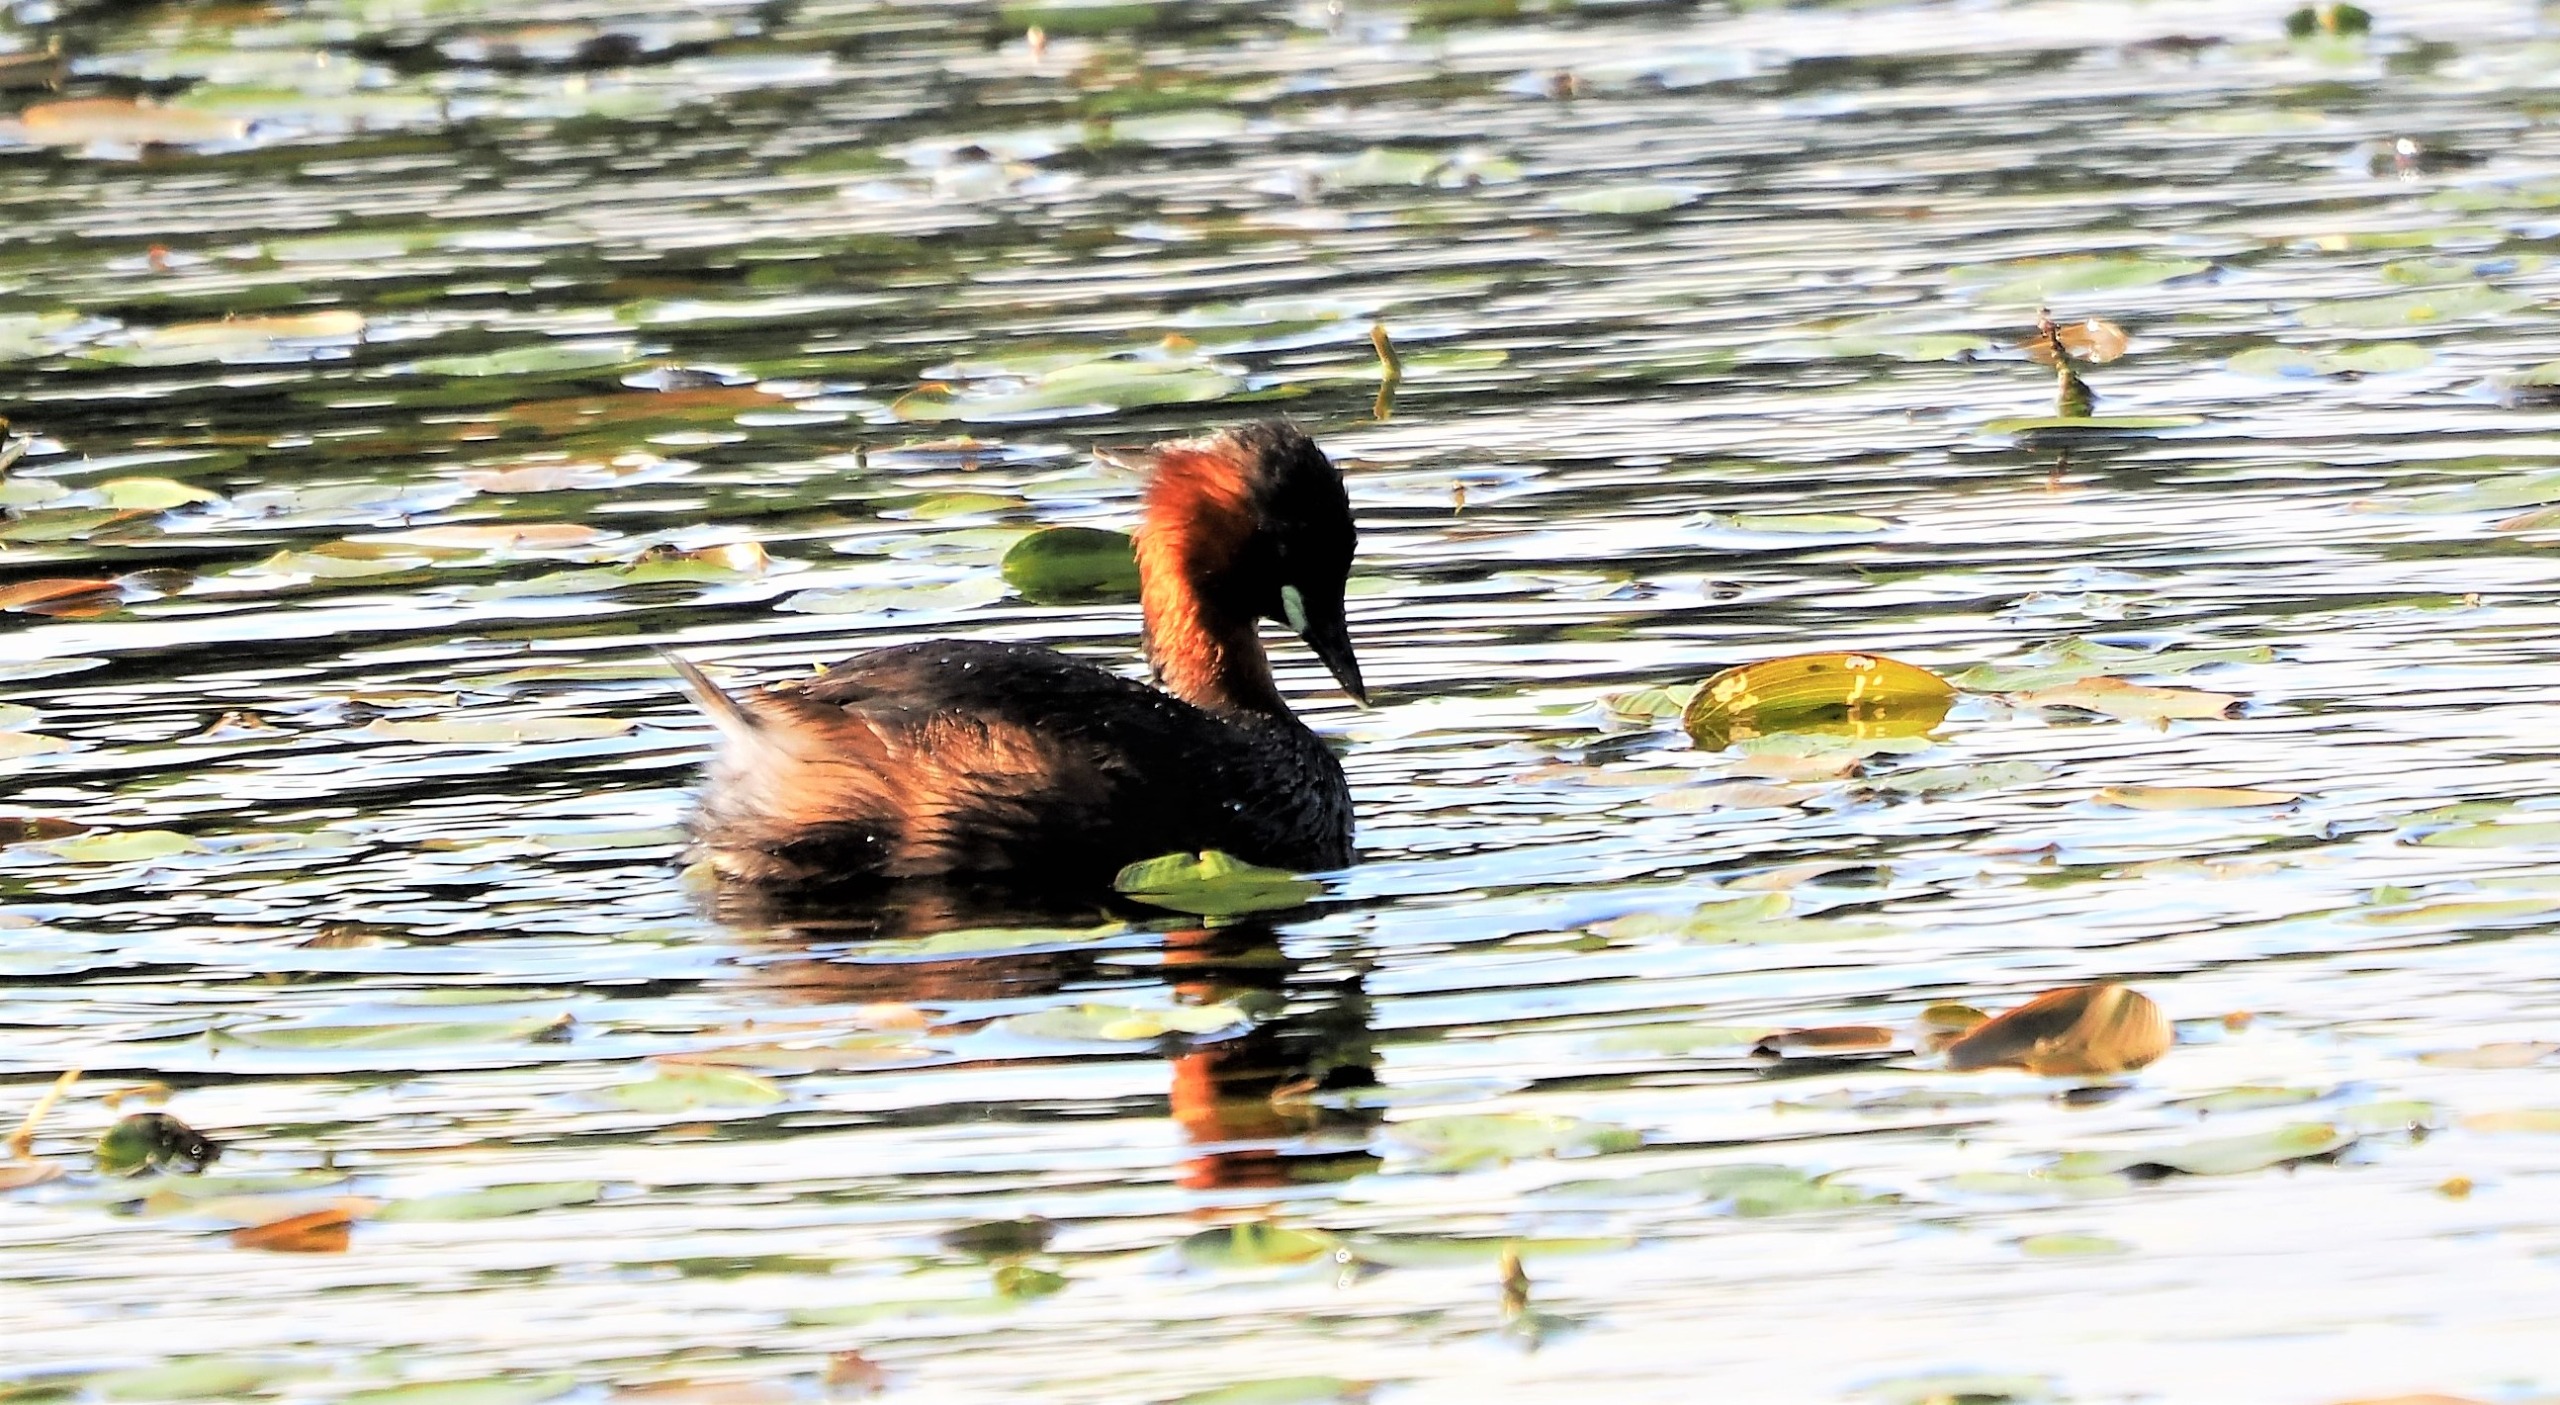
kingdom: Animalia
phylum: Chordata
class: Aves
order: Podicipediformes
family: Podicipedidae
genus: Tachybaptus
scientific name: Tachybaptus ruficollis
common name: Lille lappedykker
